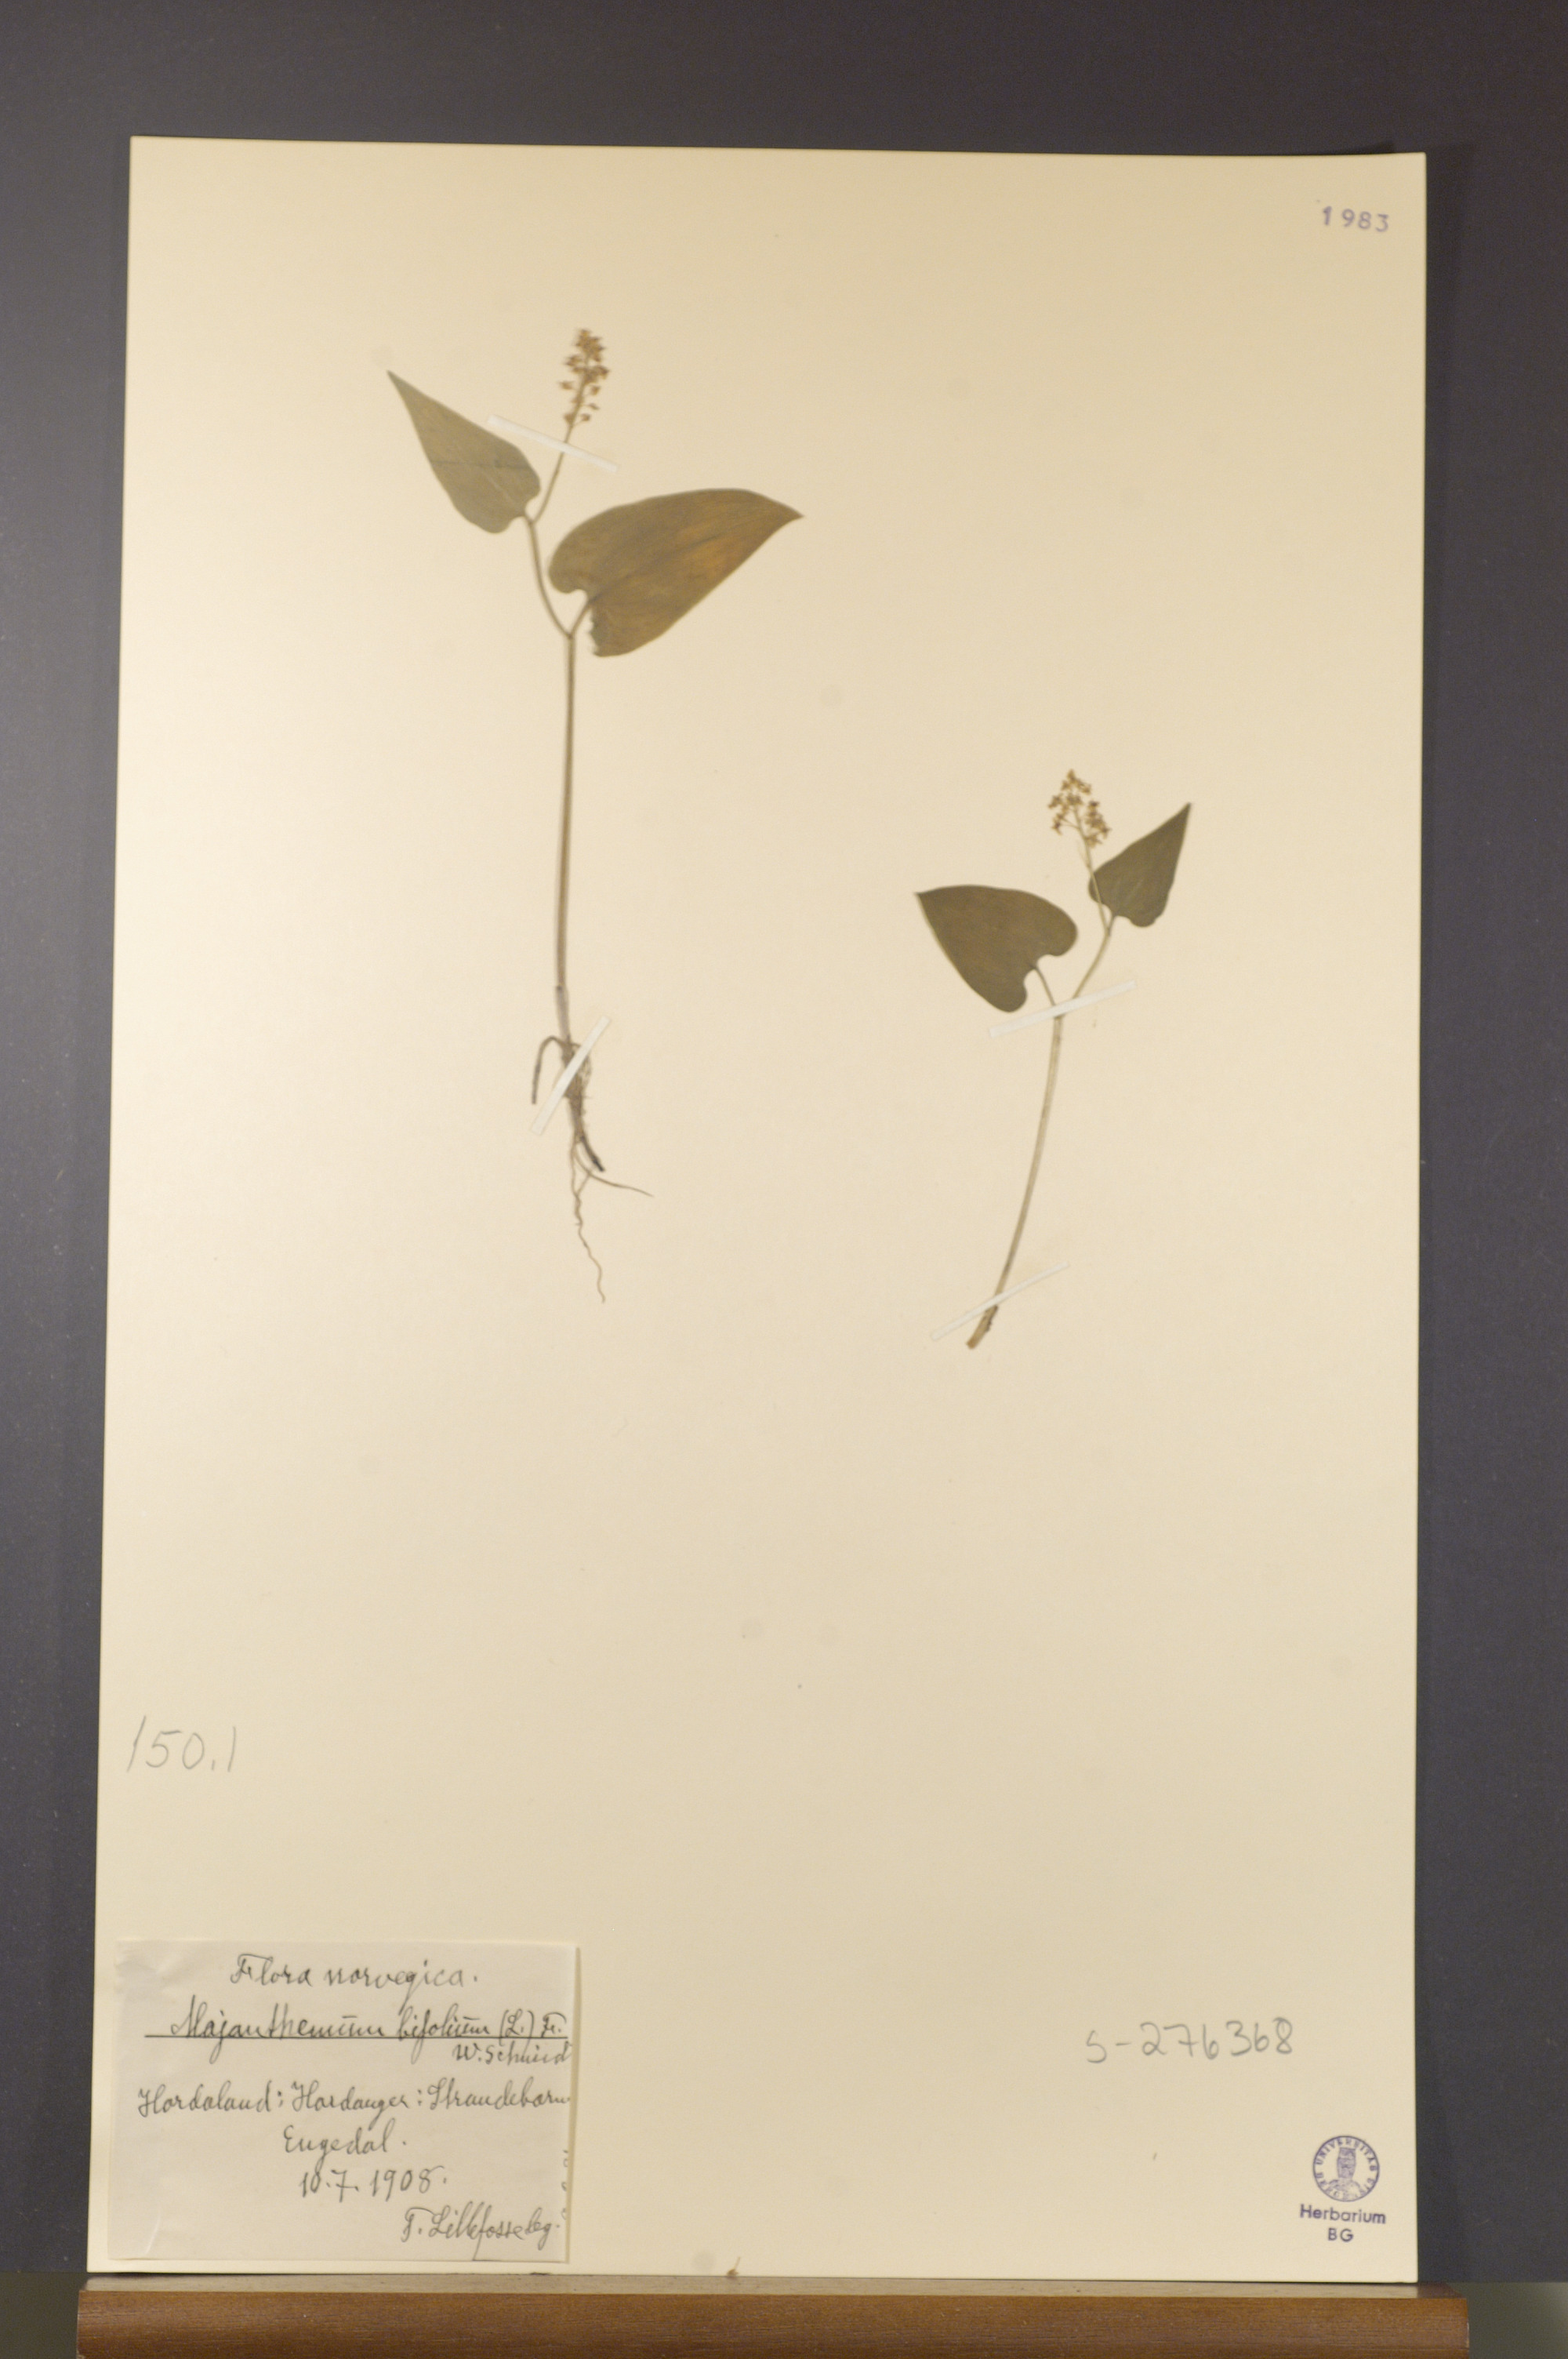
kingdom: Plantae
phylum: Tracheophyta
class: Liliopsida
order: Asparagales
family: Asparagaceae
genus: Maianthemum
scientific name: Maianthemum bifolium
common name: May lily
